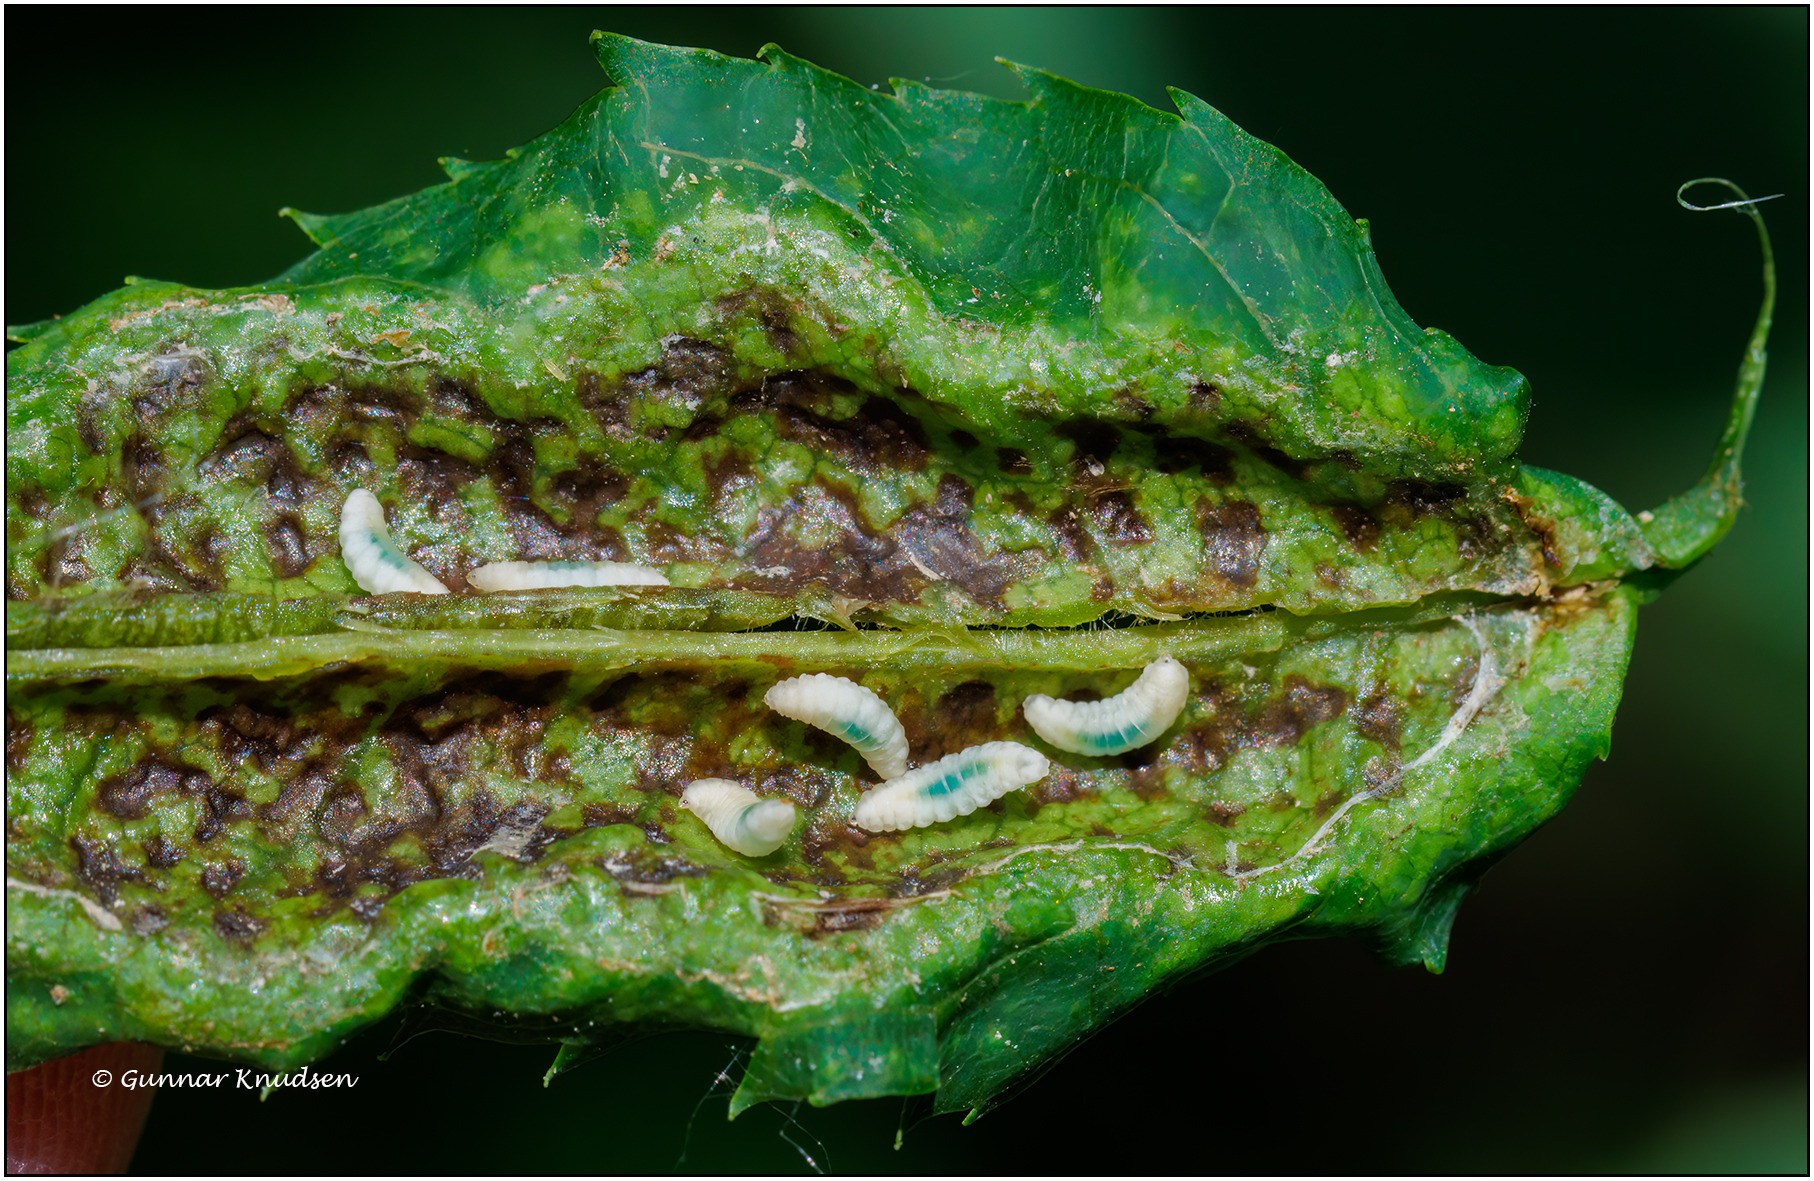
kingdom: Animalia
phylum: Arthropoda
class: Insecta
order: Diptera
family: Cecidomyiidae
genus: Dasineura
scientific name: Dasineura acrophila
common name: Hvid askebladgalmyg
